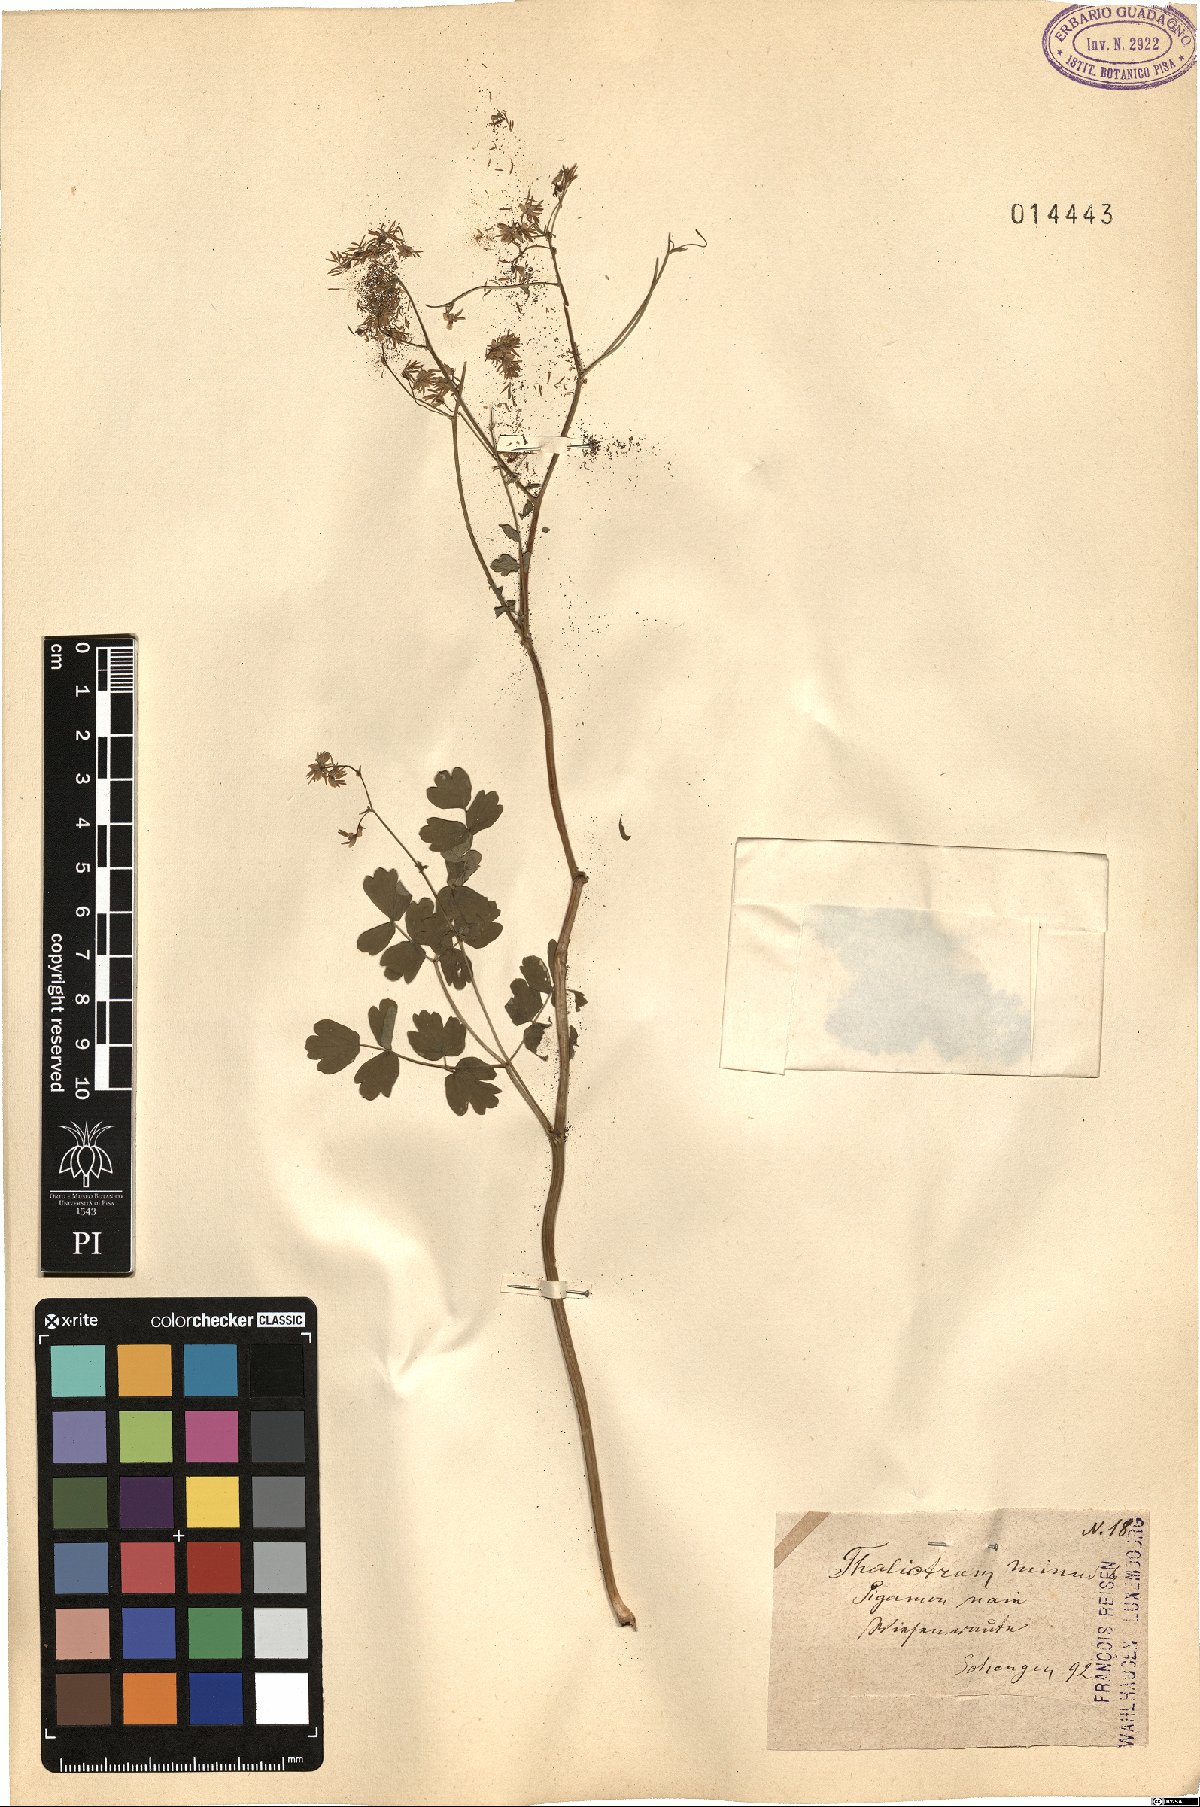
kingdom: Plantae
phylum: Tracheophyta
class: Magnoliopsida
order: Ranunculales
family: Ranunculaceae
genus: Thalictrum
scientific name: Thalictrum minus
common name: Lesser meadow-rue
